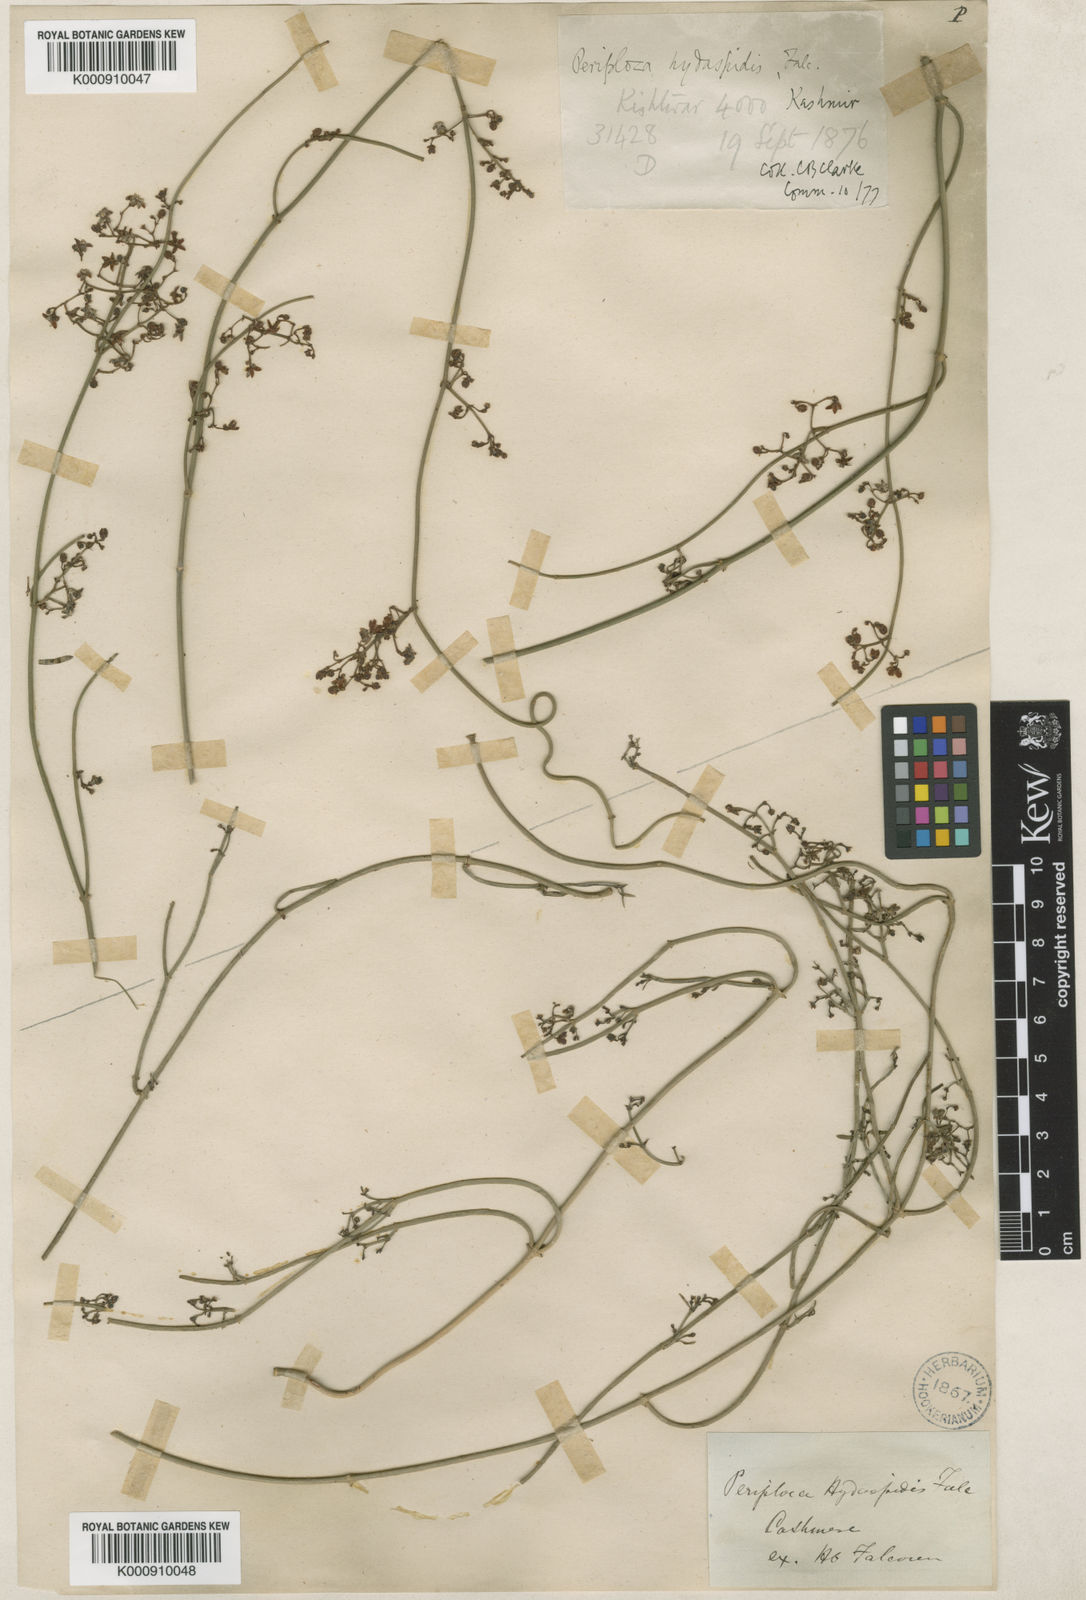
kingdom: Plantae
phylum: Tracheophyta
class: Magnoliopsida
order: Gentianales
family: Apocynaceae
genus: Periploca
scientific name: Periploca hydaspidis
